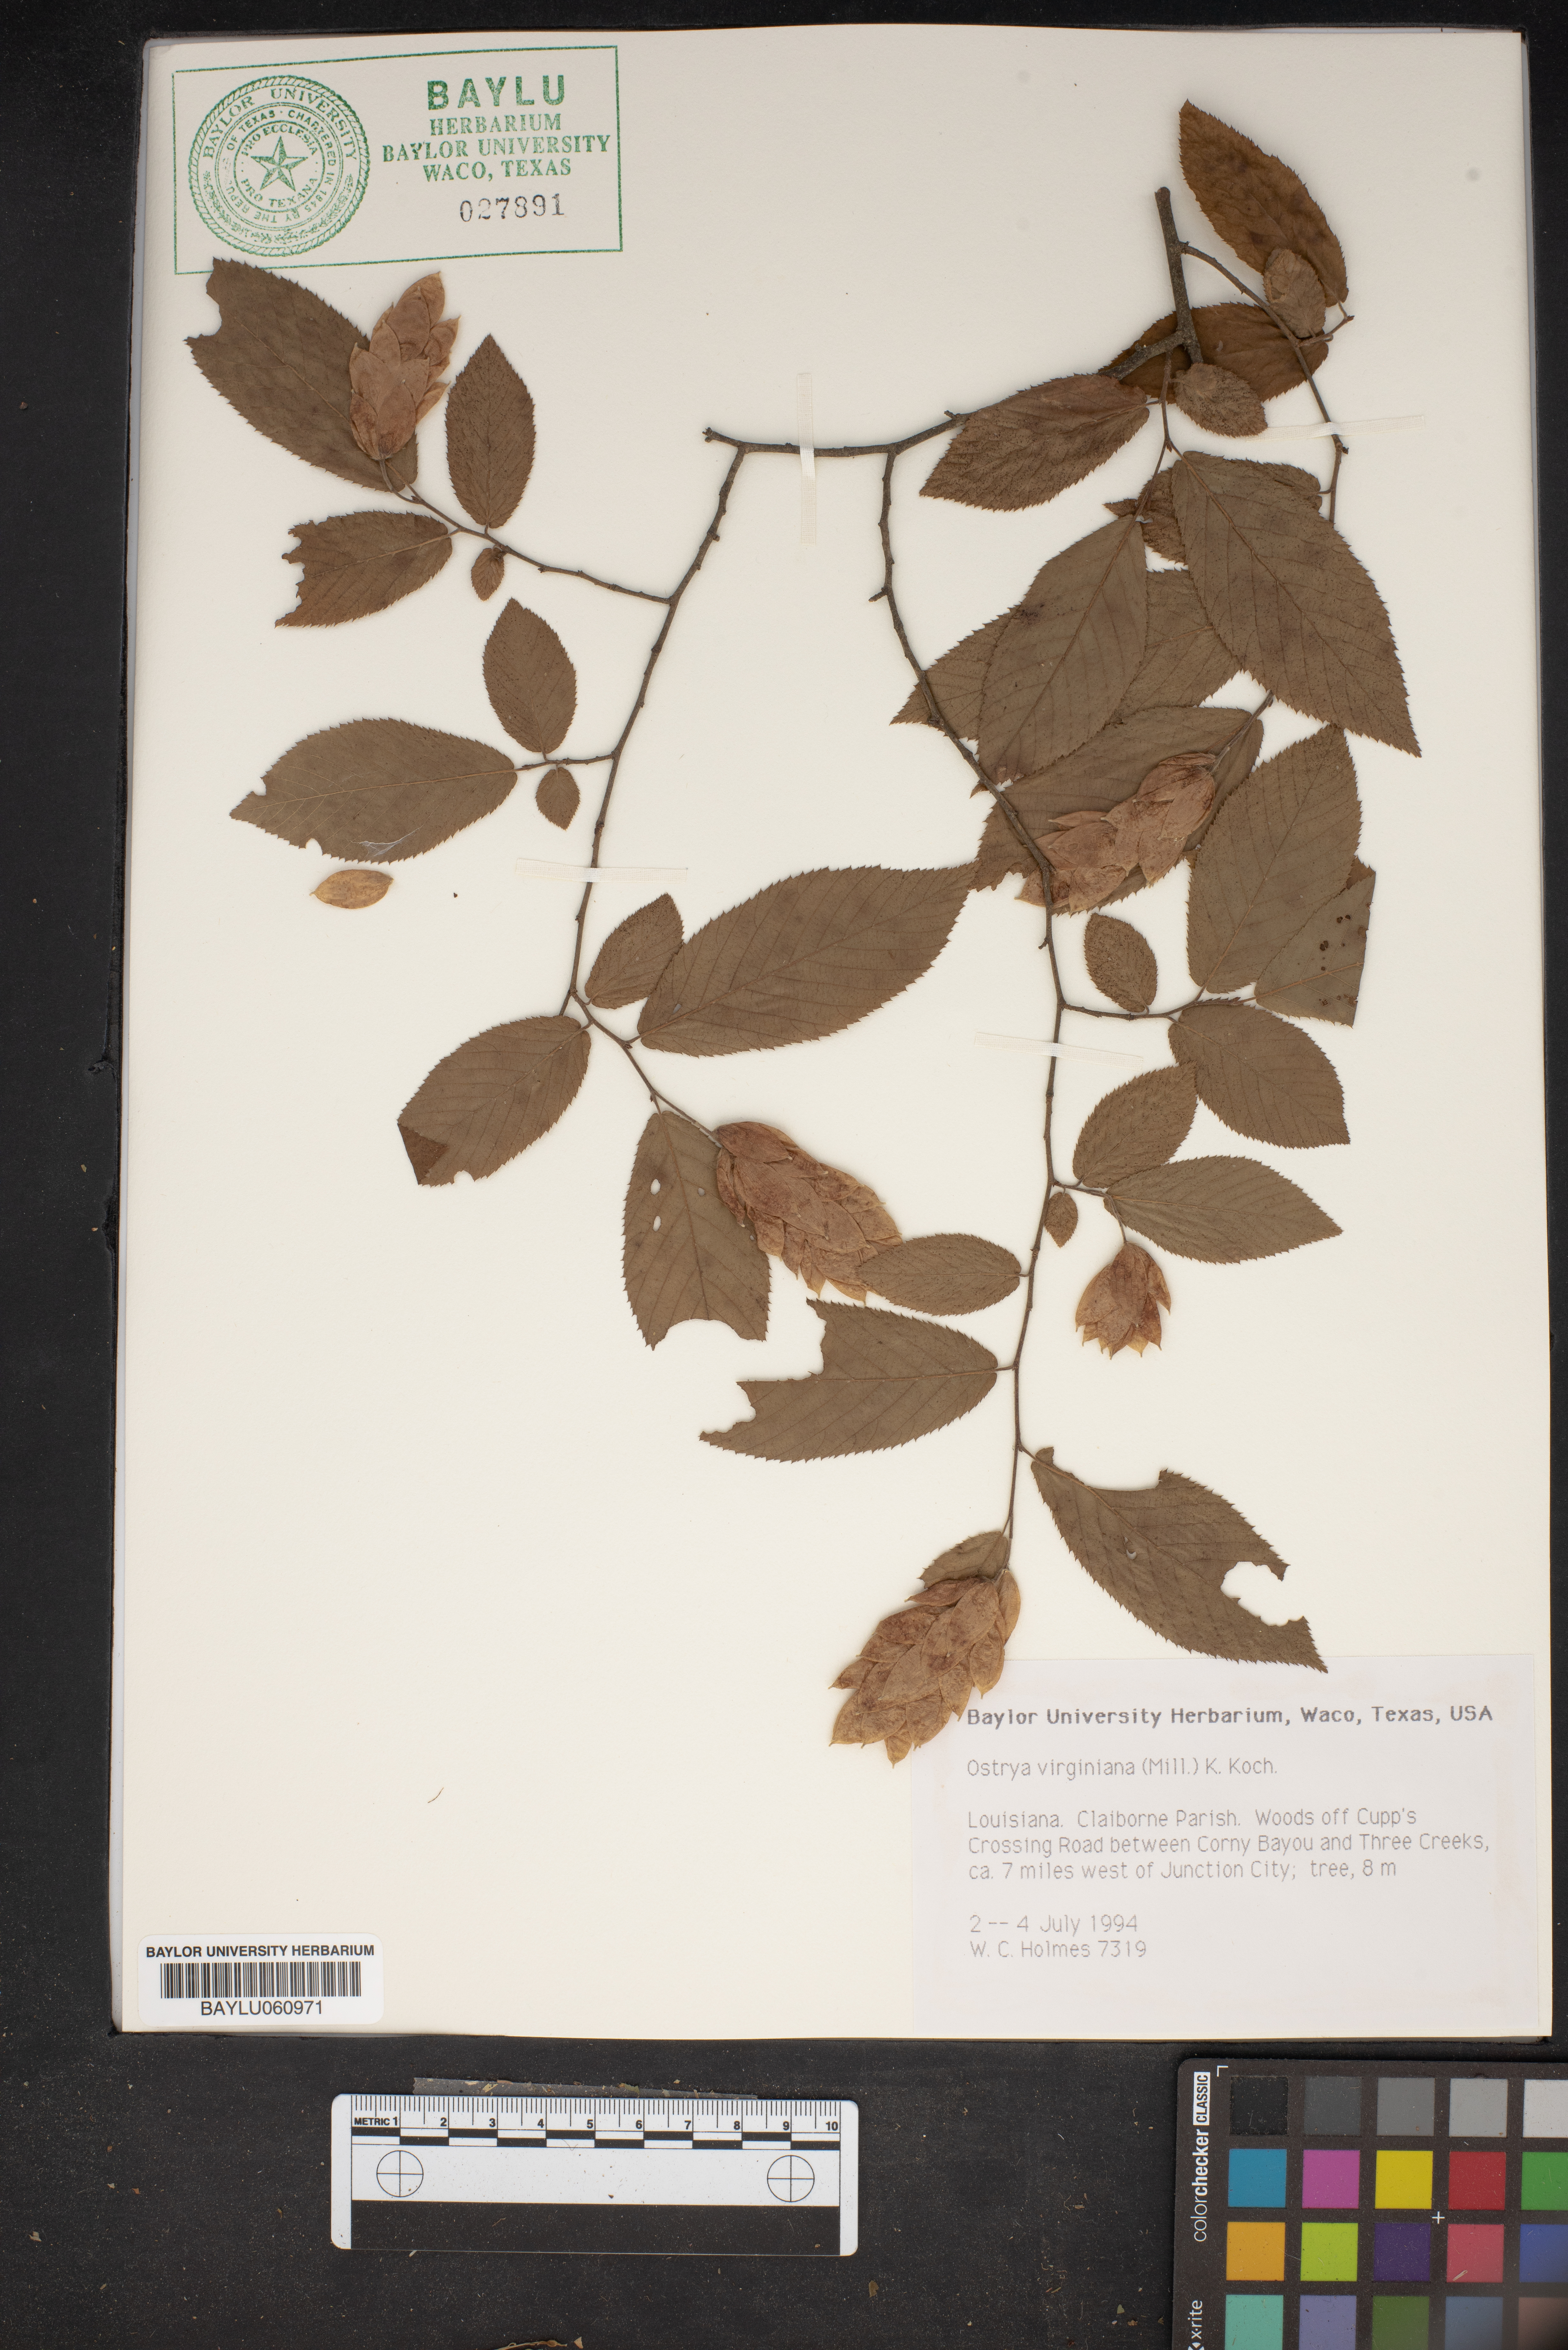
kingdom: Plantae
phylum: Tracheophyta
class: Magnoliopsida
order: Fagales
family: Betulaceae
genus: Ostrya
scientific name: Ostrya virginiana
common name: Ironwood
